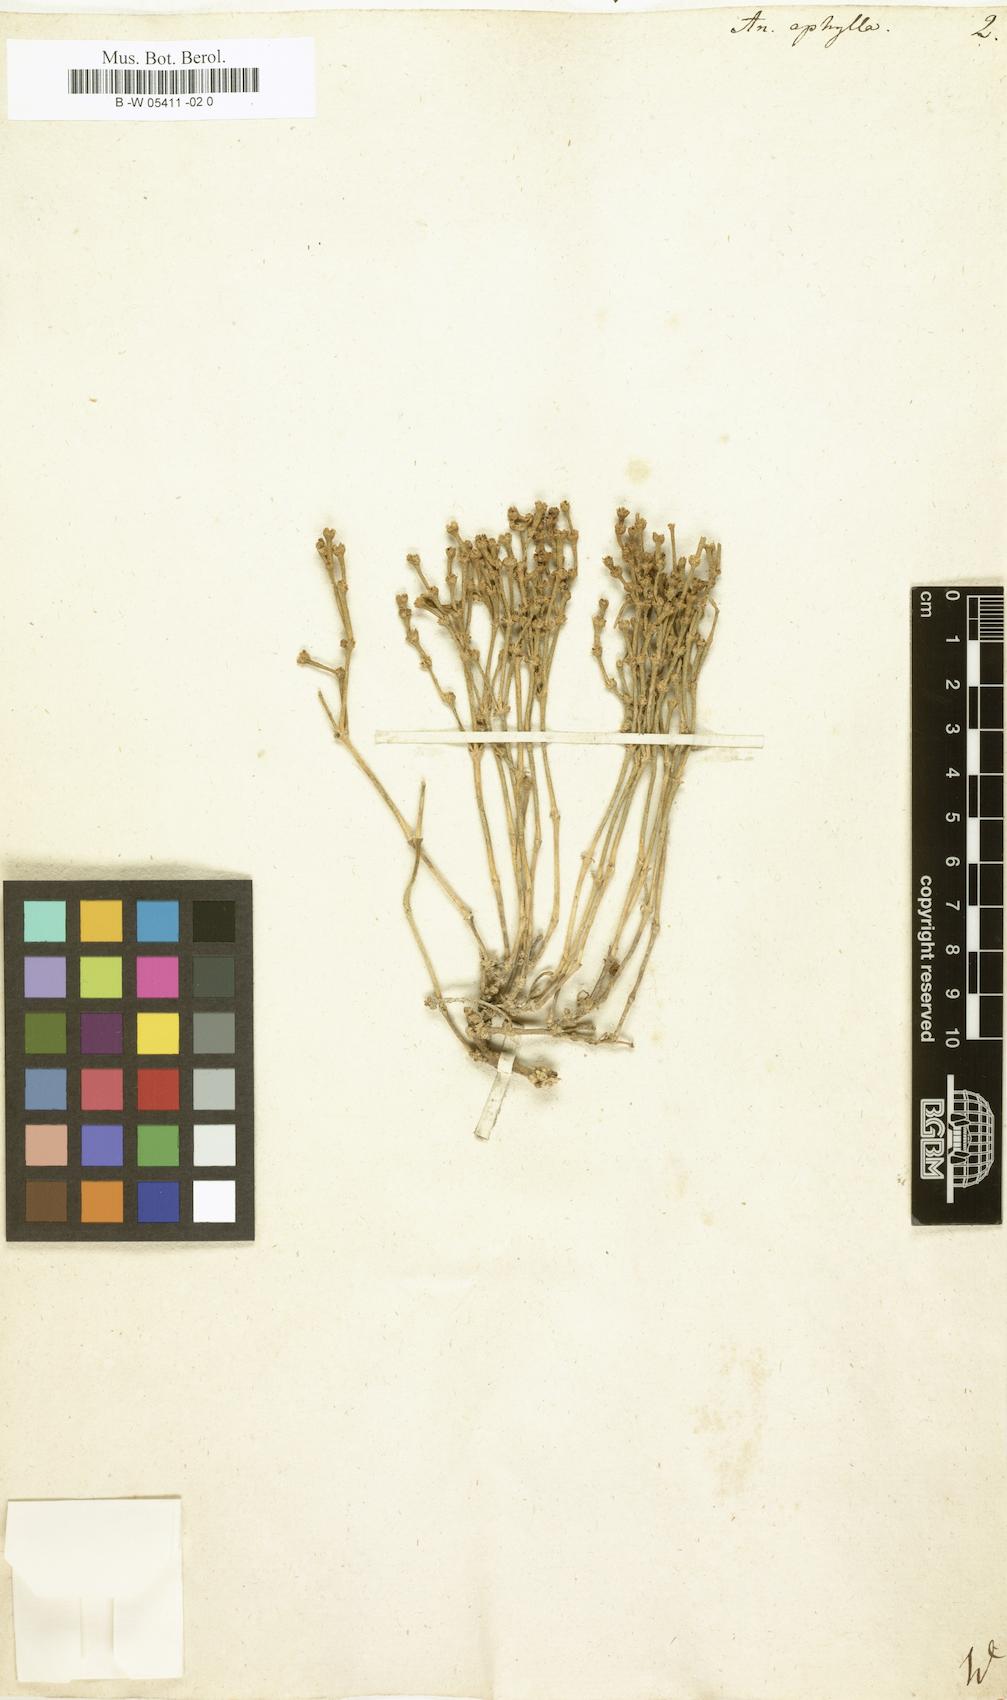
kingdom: Plantae
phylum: Tracheophyta
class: Magnoliopsida
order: Caryophyllales
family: Amaranthaceae
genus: Anabasis
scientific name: Anabasis aphylla
